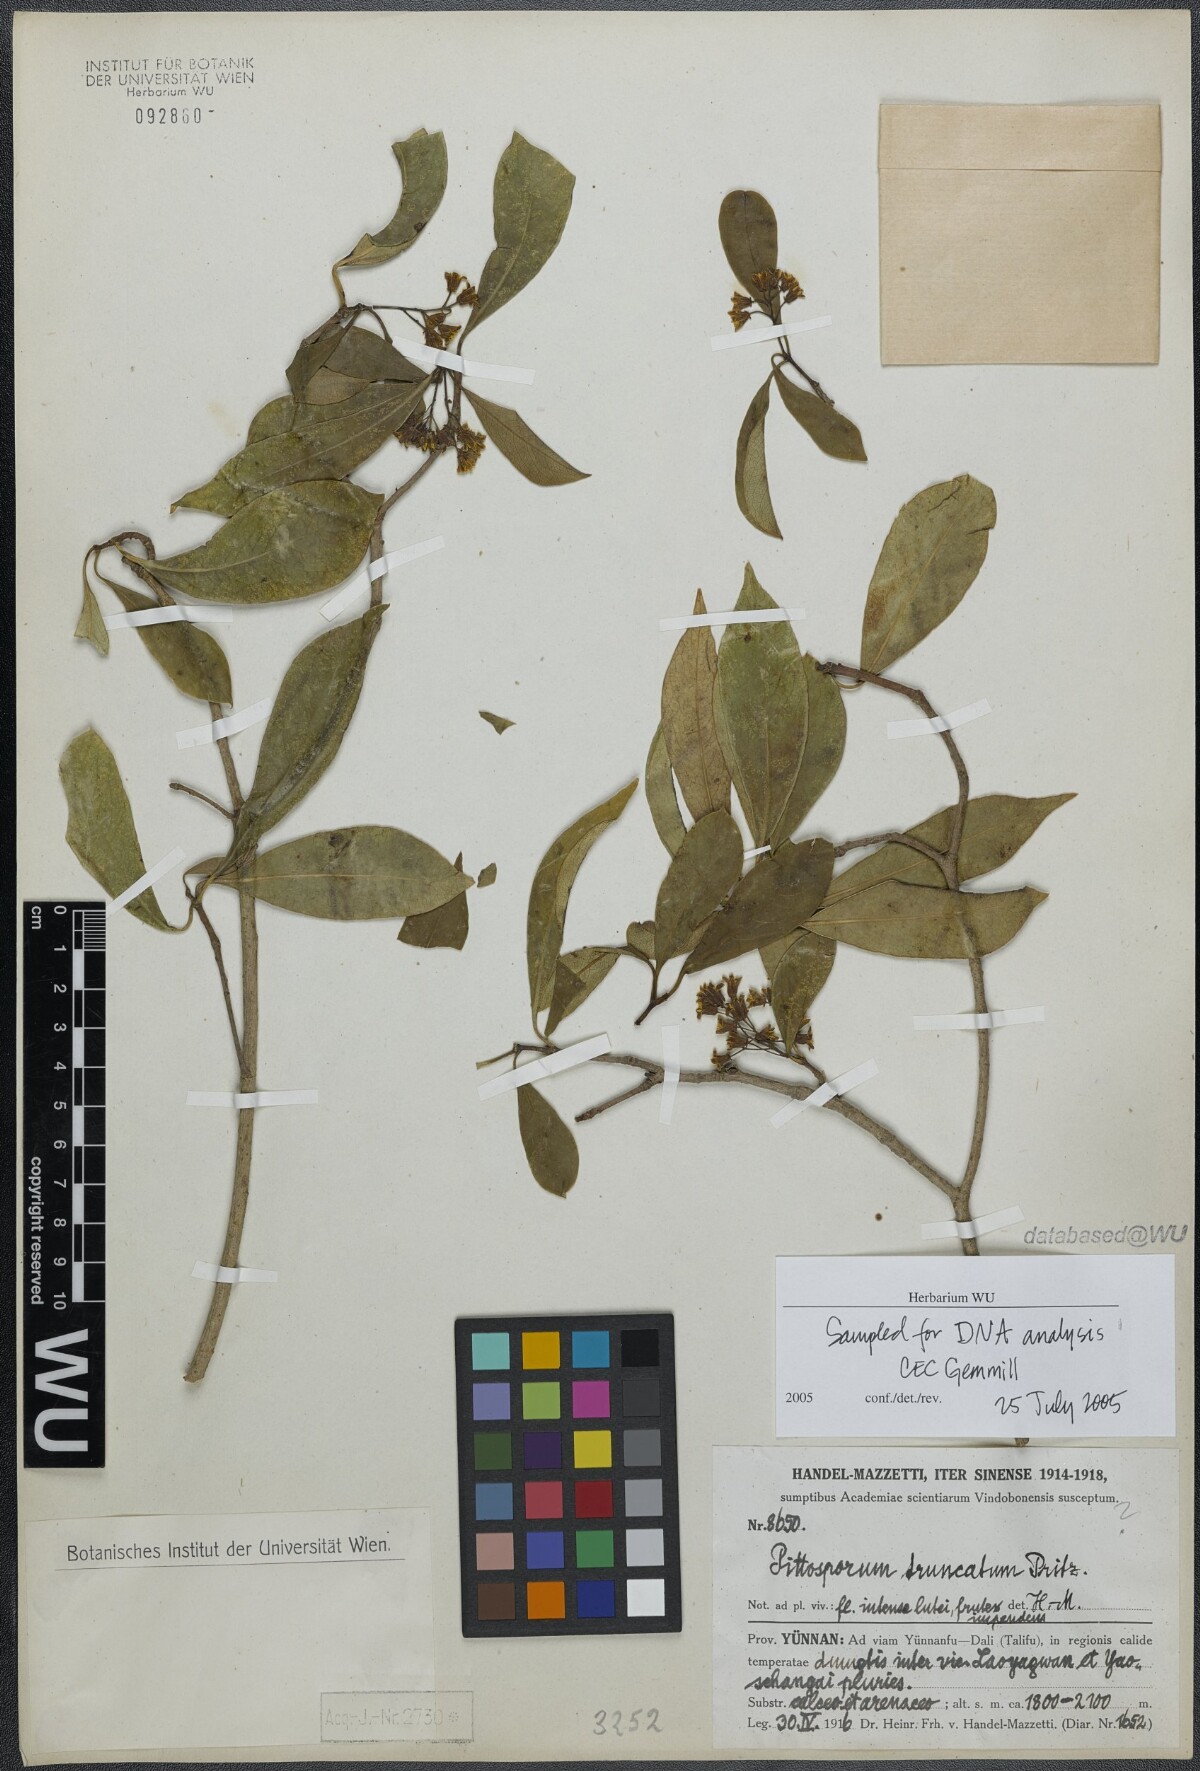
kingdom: Plantae
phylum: Tracheophyta
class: Magnoliopsida
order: Apiales
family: Pittosporaceae
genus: Pittosporum
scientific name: Pittosporum truncatum
